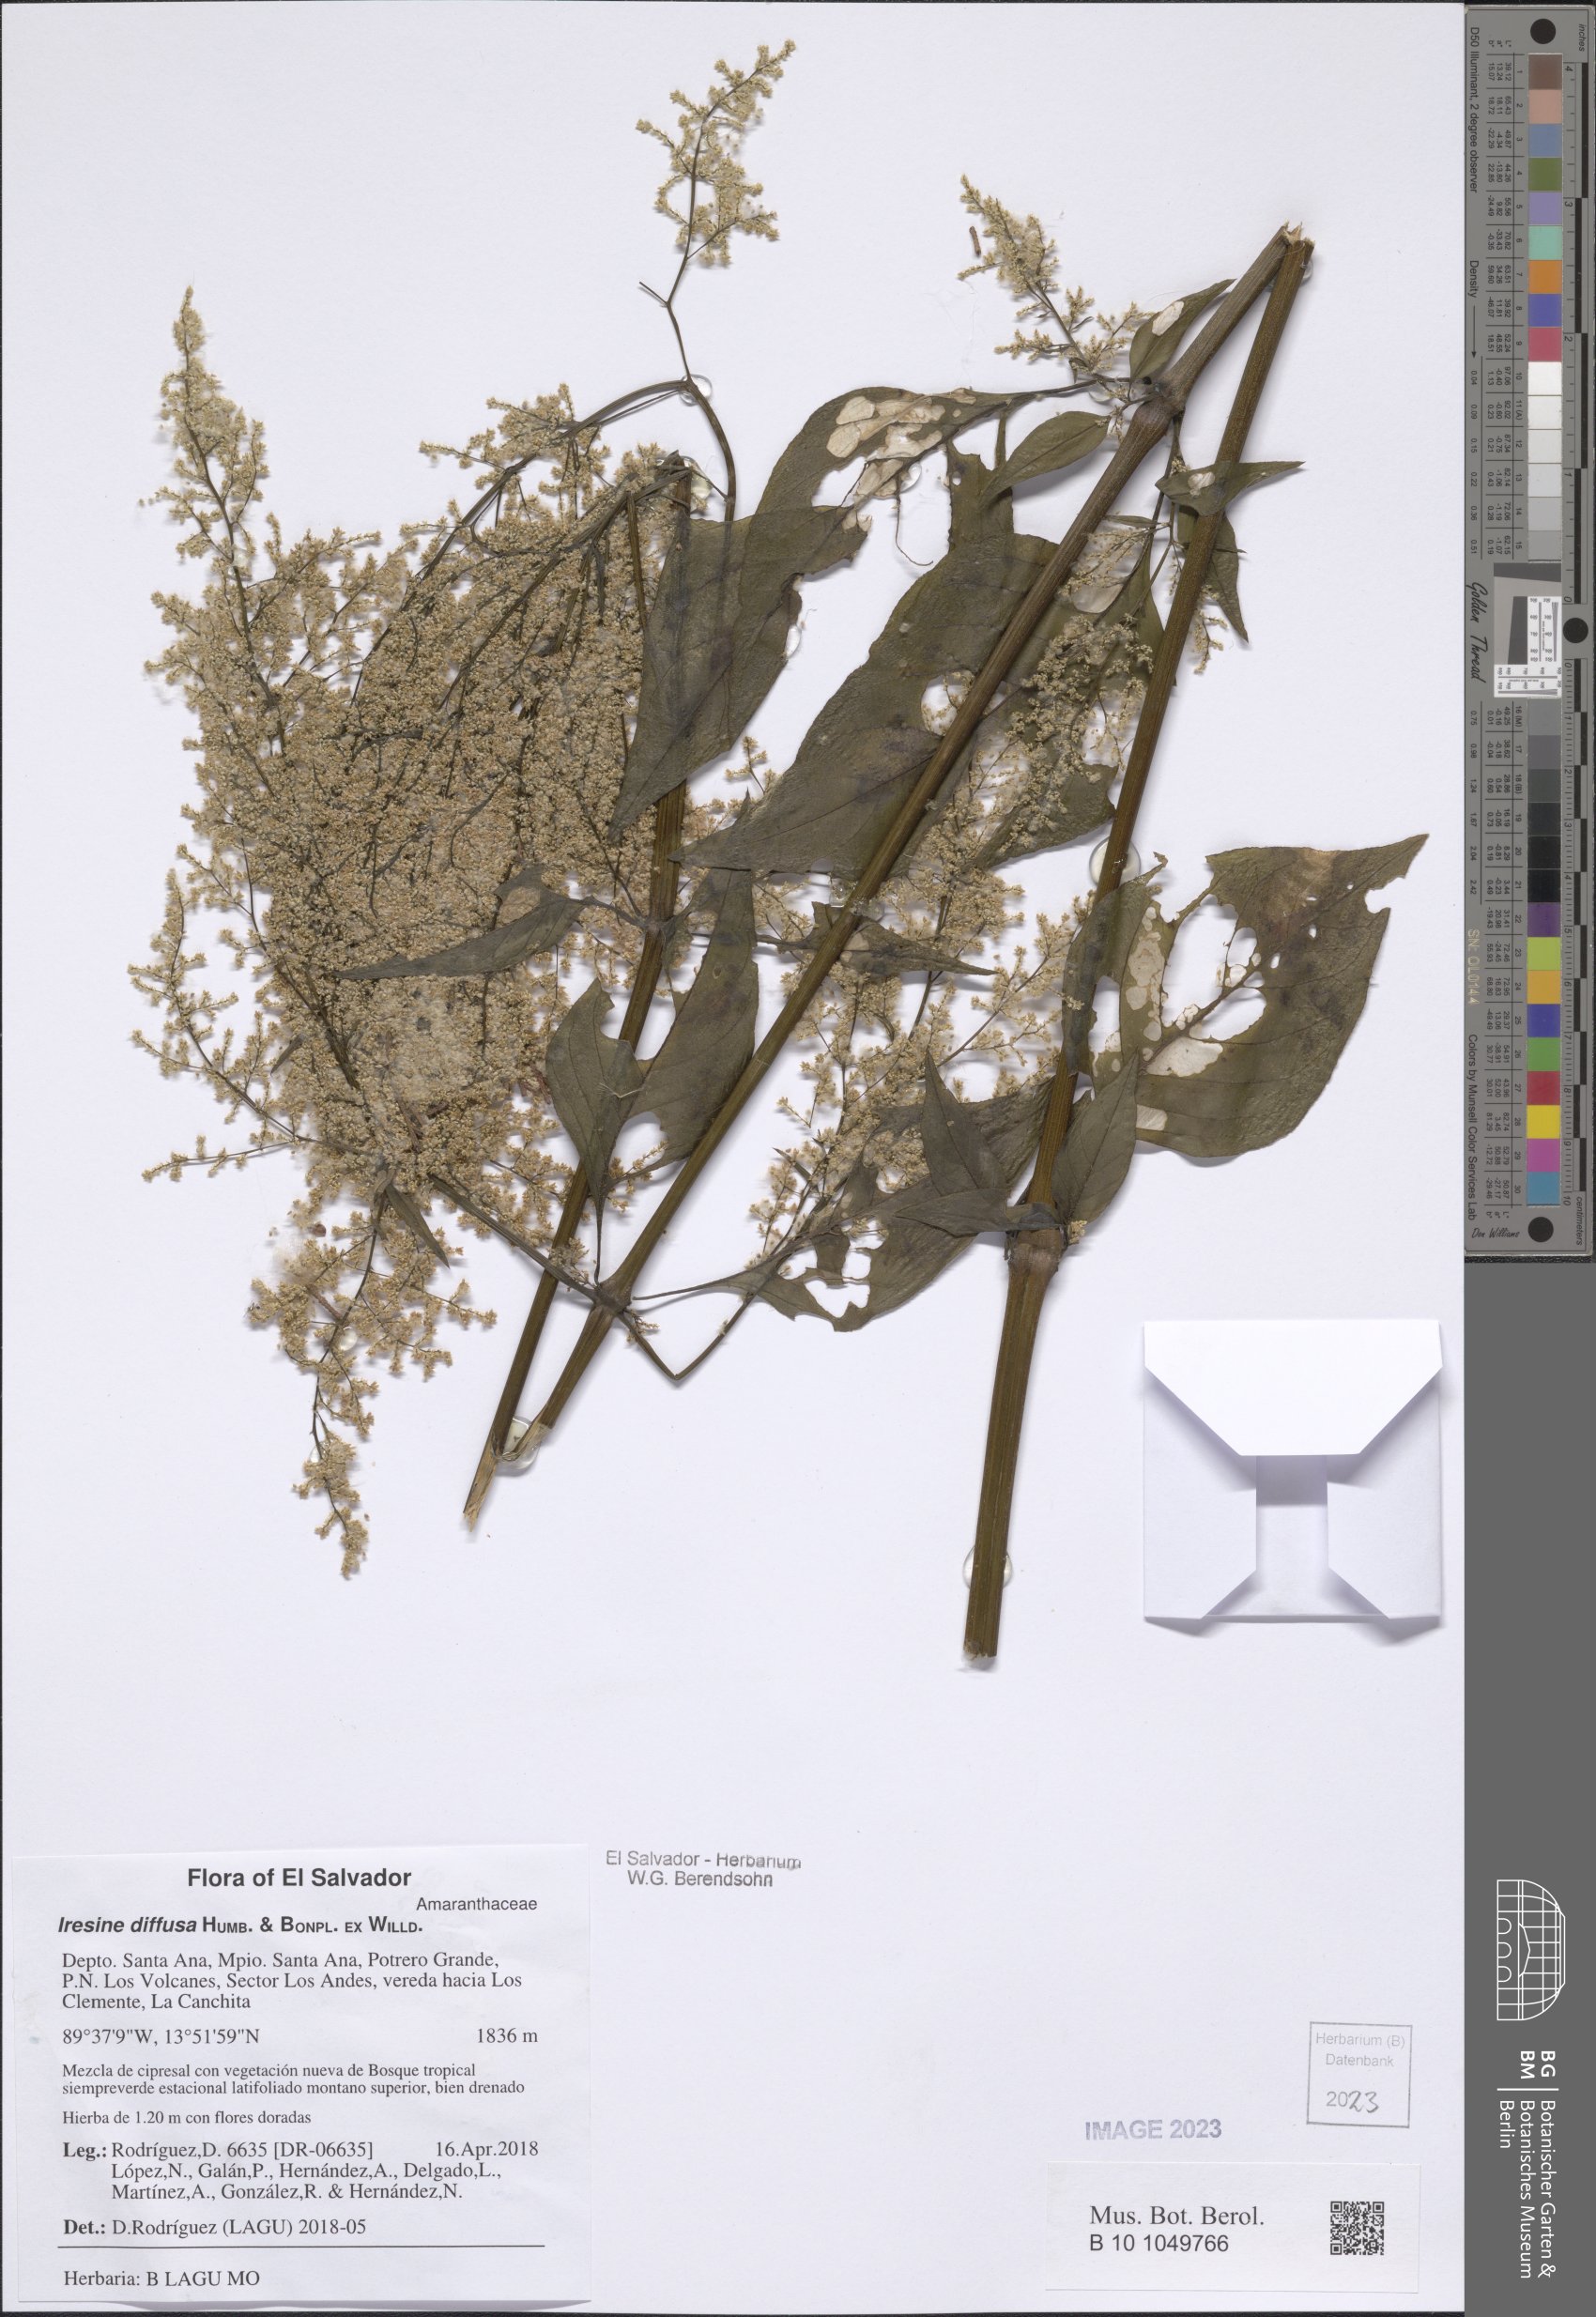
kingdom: Plantae
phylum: Tracheophyta
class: Magnoliopsida
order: Caryophyllales
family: Amaranthaceae
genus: Iresine
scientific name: Iresine diffusa
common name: Juba's-bush
